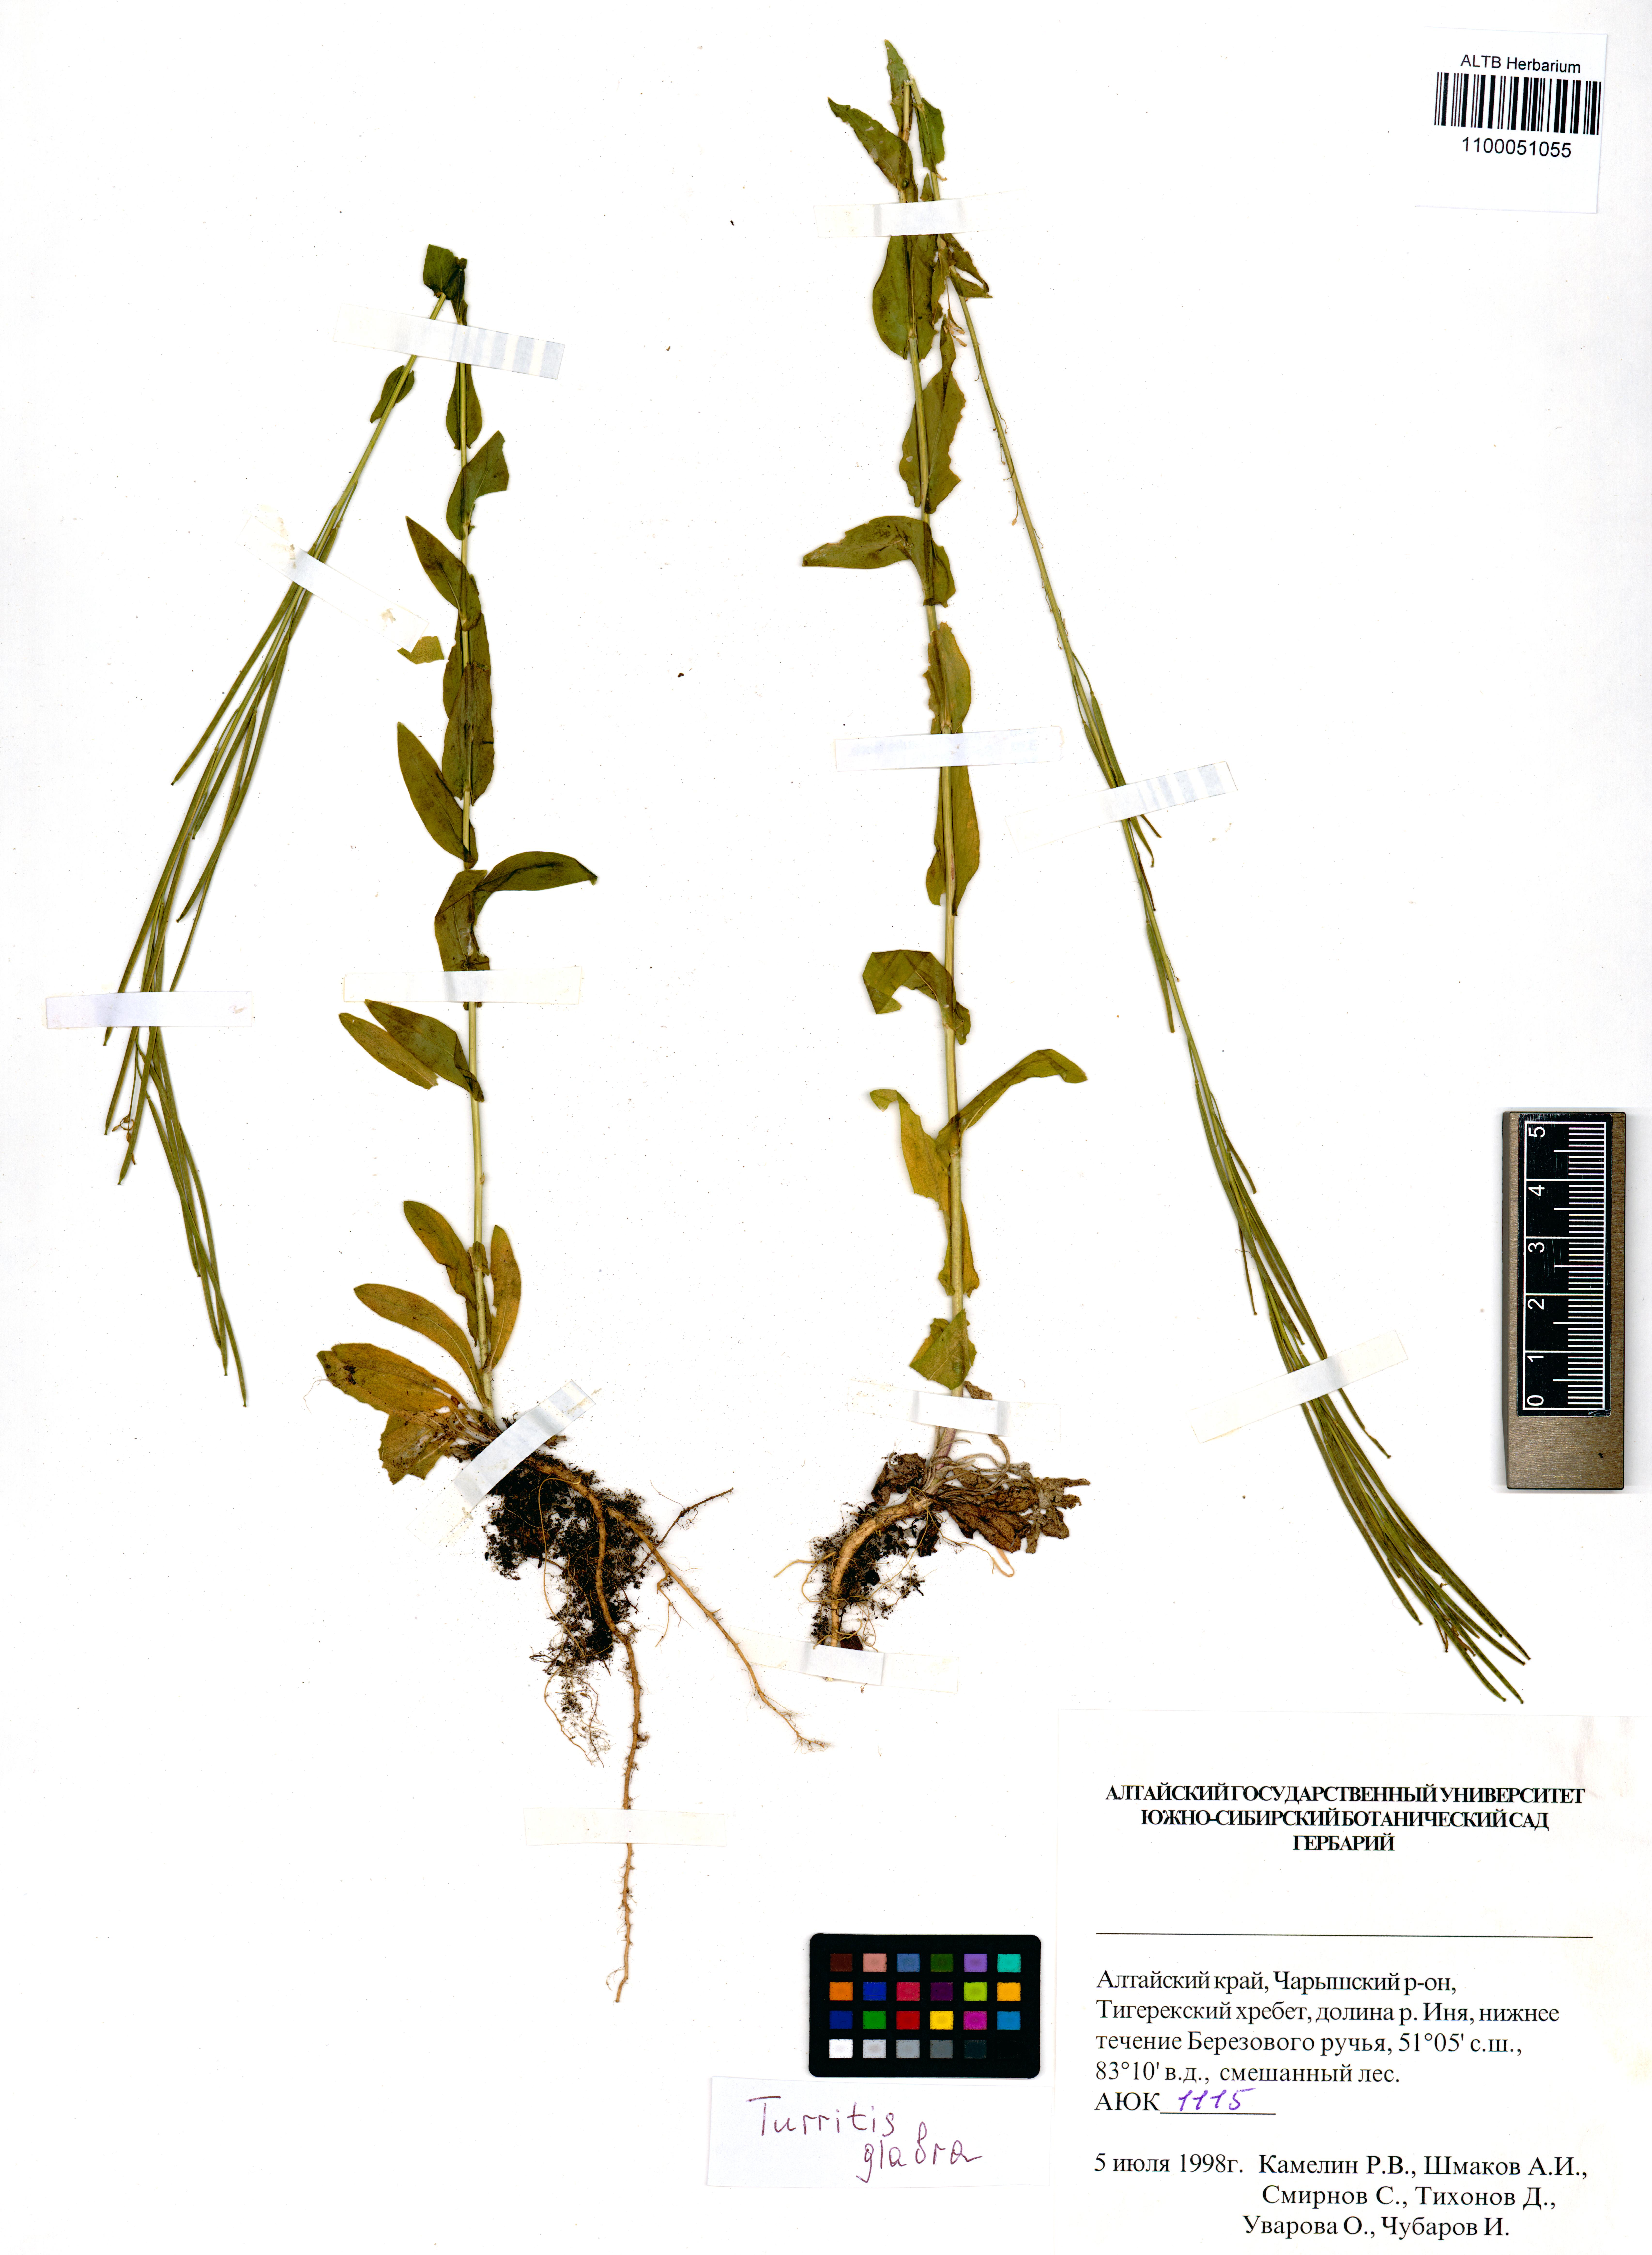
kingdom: Plantae
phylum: Tracheophyta
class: Magnoliopsida
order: Brassicales
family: Brassicaceae
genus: Turritis
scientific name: Turritis glabra
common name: Tower rockcress
